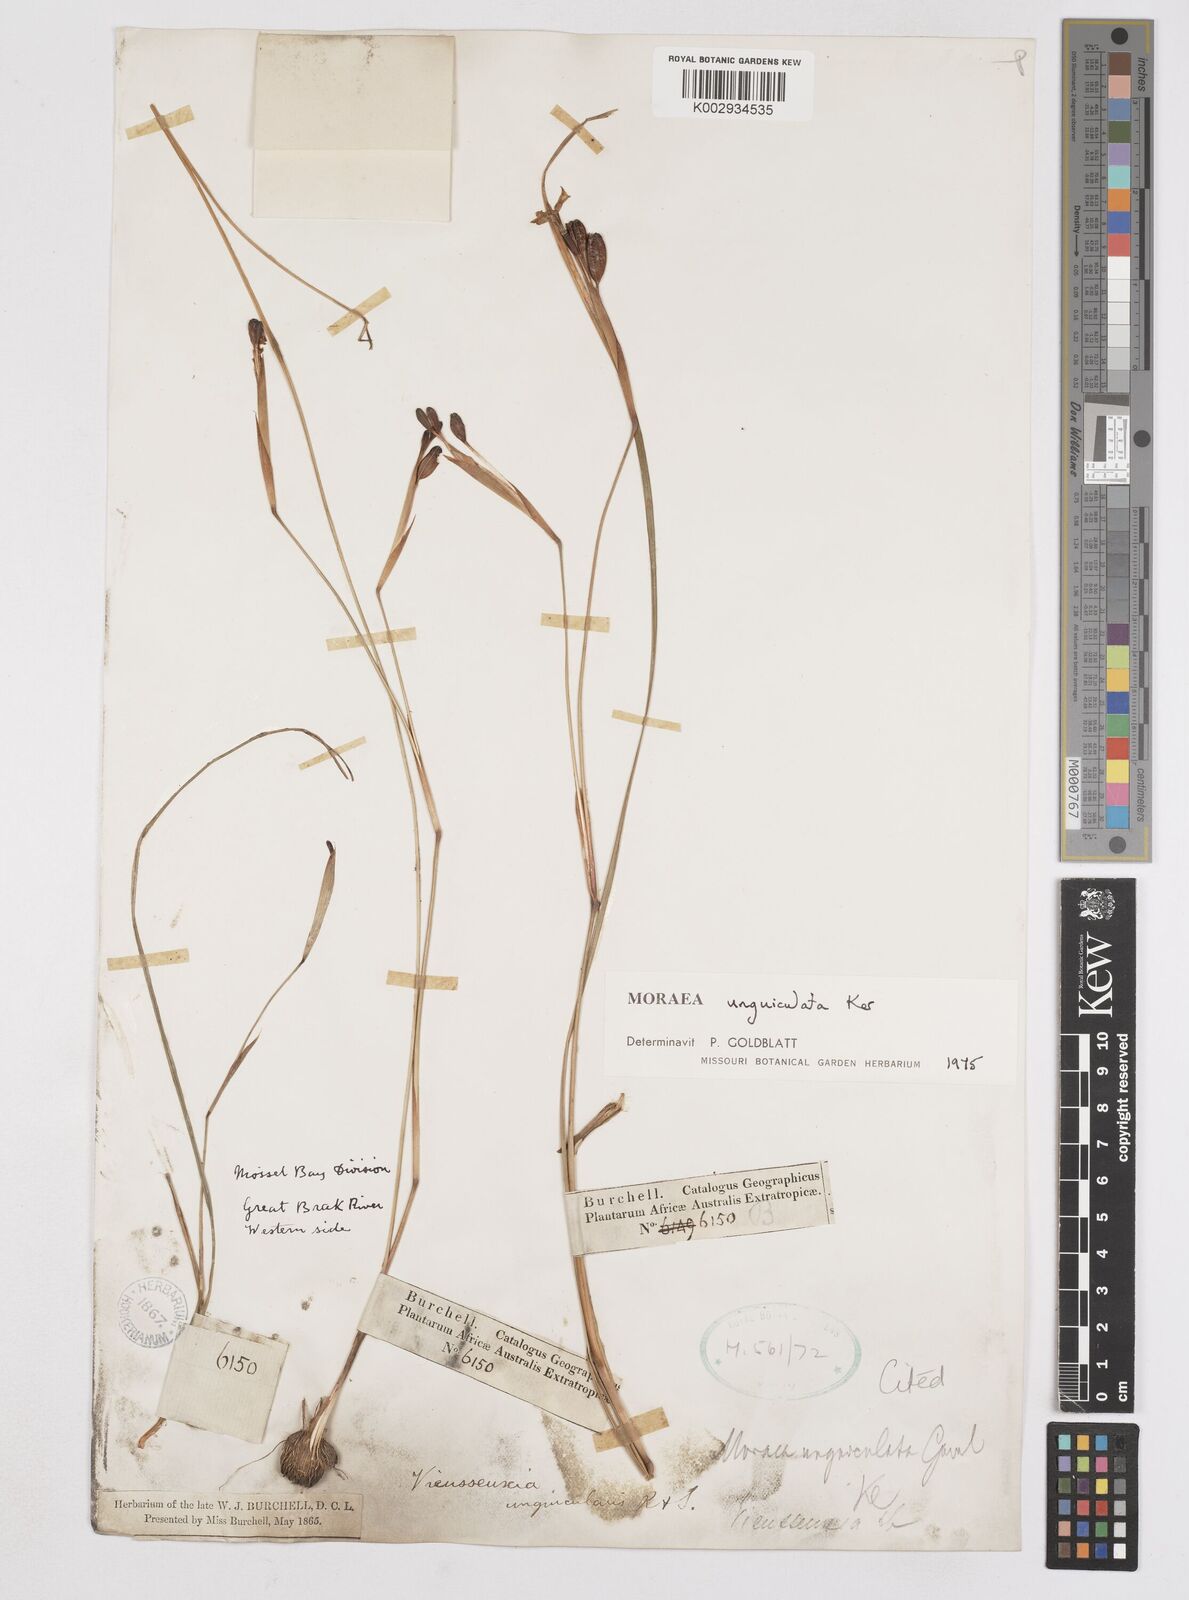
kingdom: Plantae
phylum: Tracheophyta
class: Liliopsida
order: Asparagales
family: Iridaceae
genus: Moraea
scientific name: Moraea unguiculata
